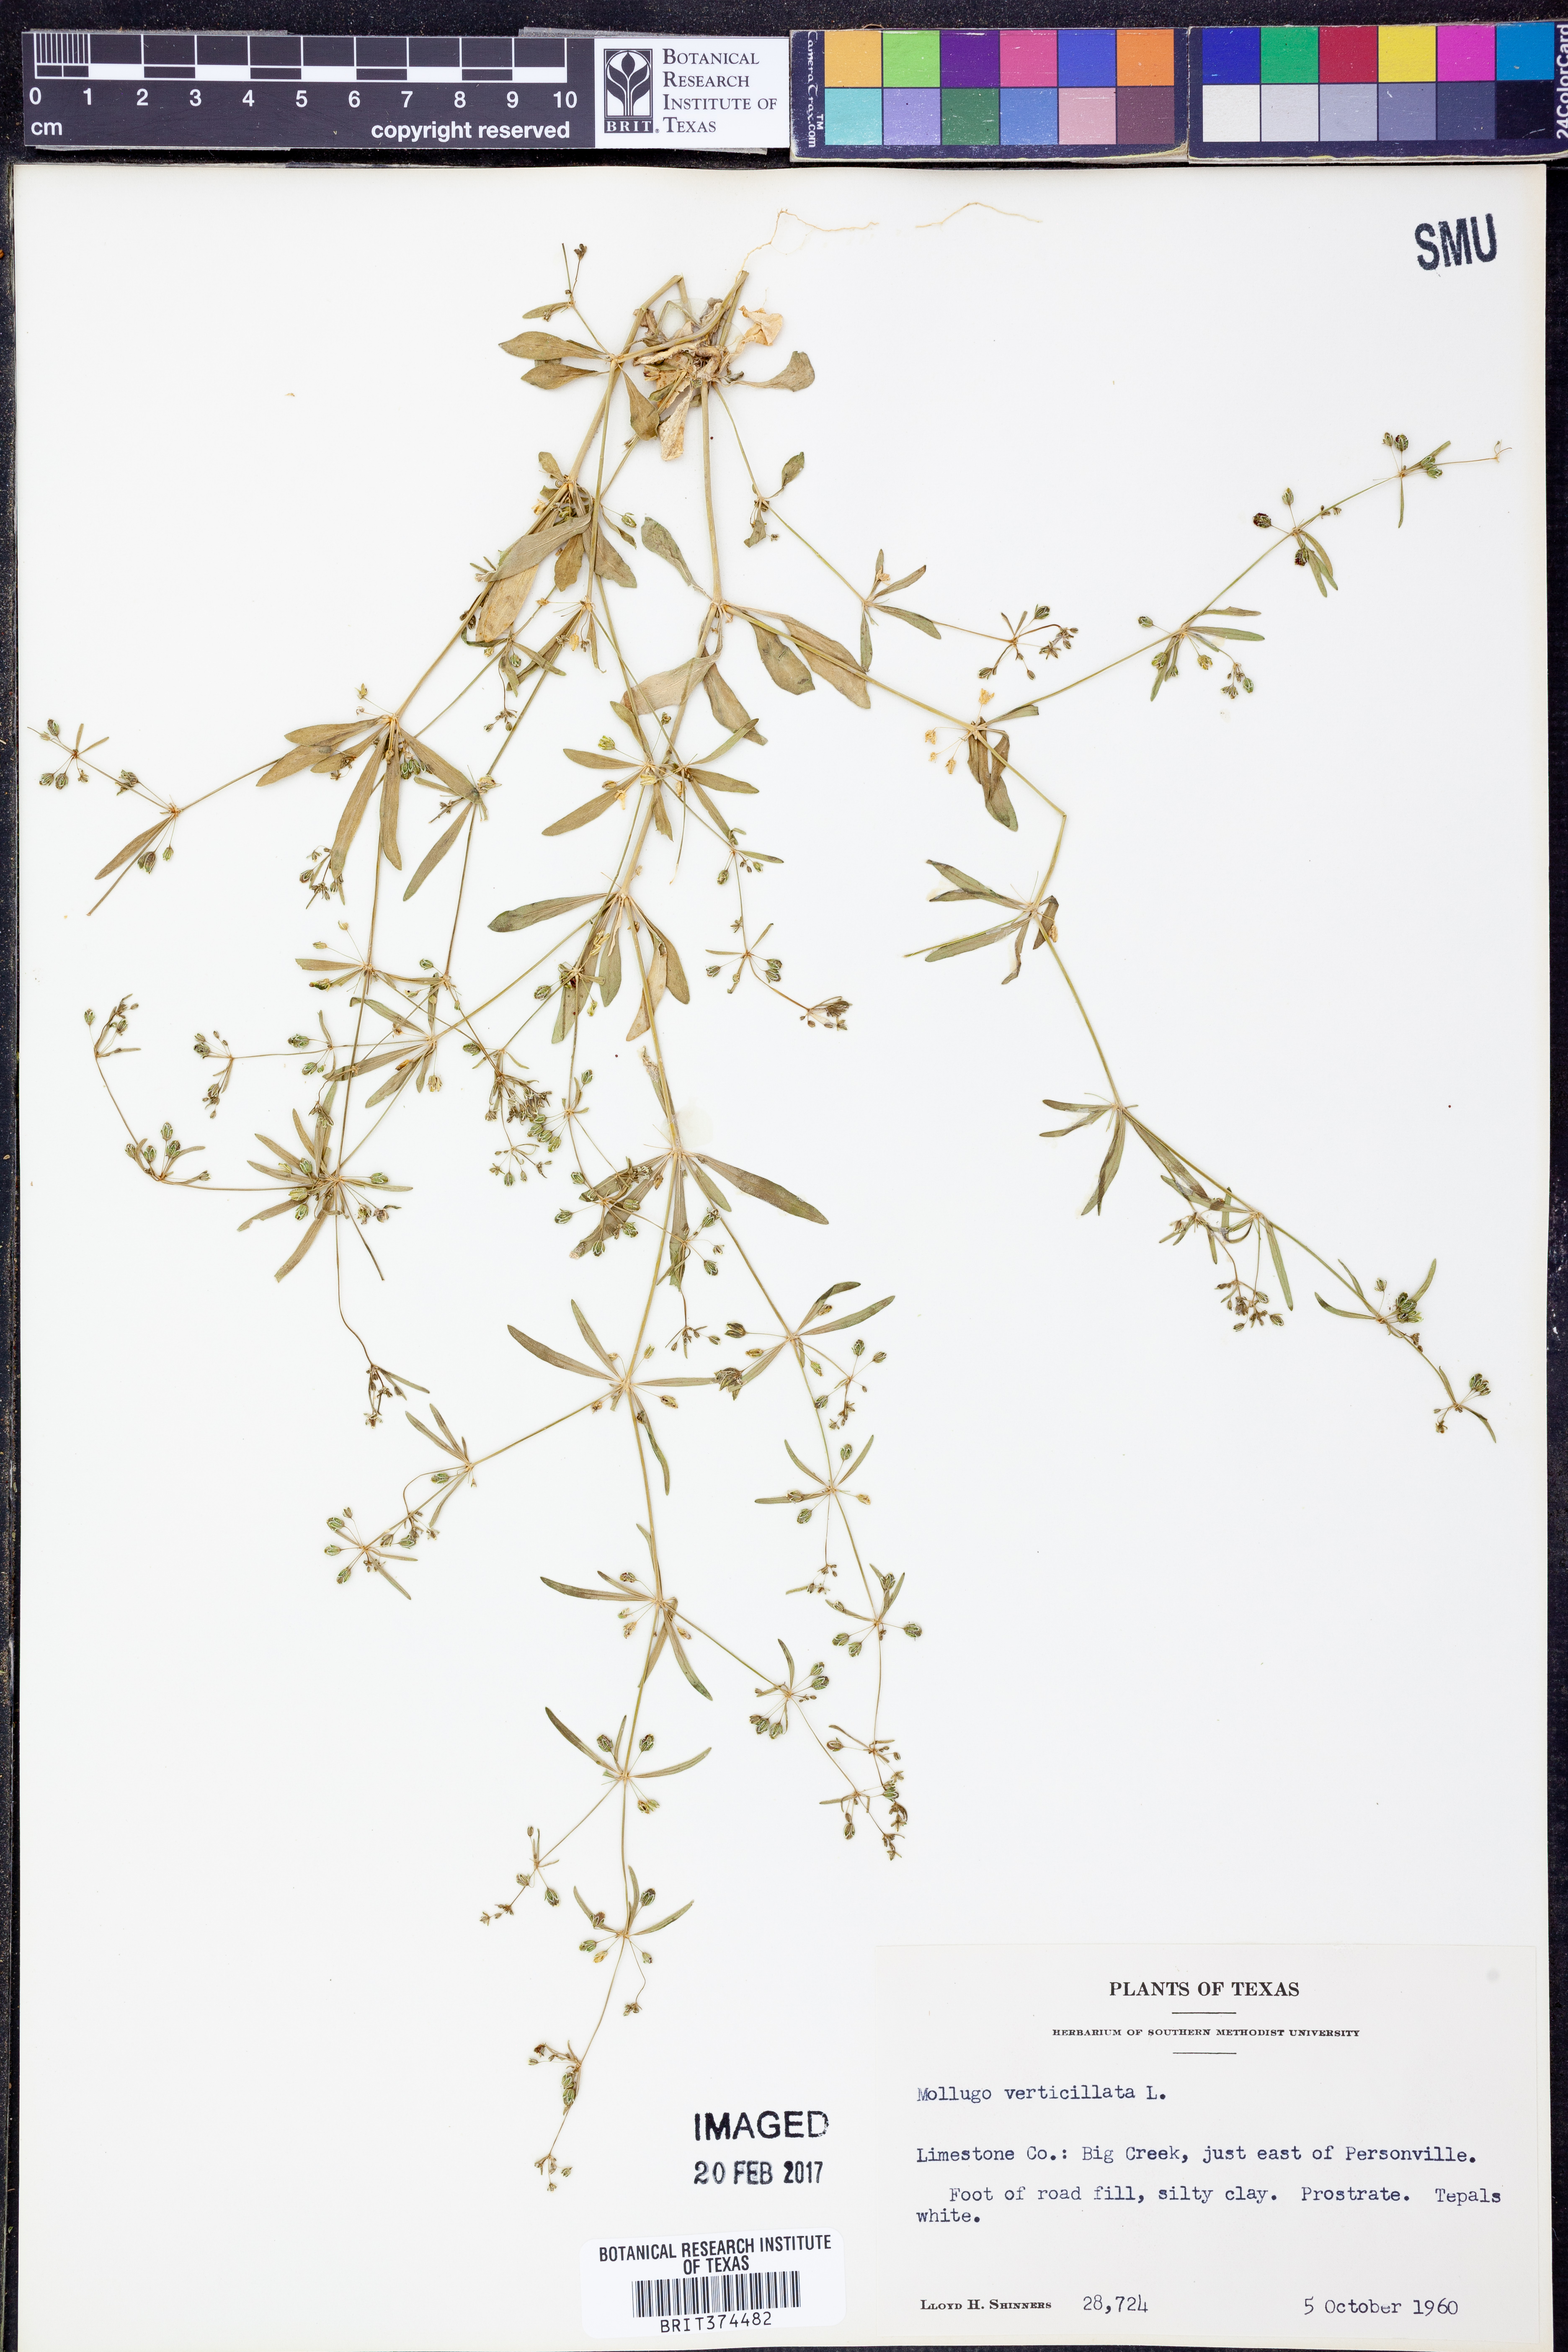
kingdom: Plantae
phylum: Tracheophyta
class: Magnoliopsida
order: Caryophyllales
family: Molluginaceae
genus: Mollugo
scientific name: Mollugo verticillata
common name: Green carpetweed
